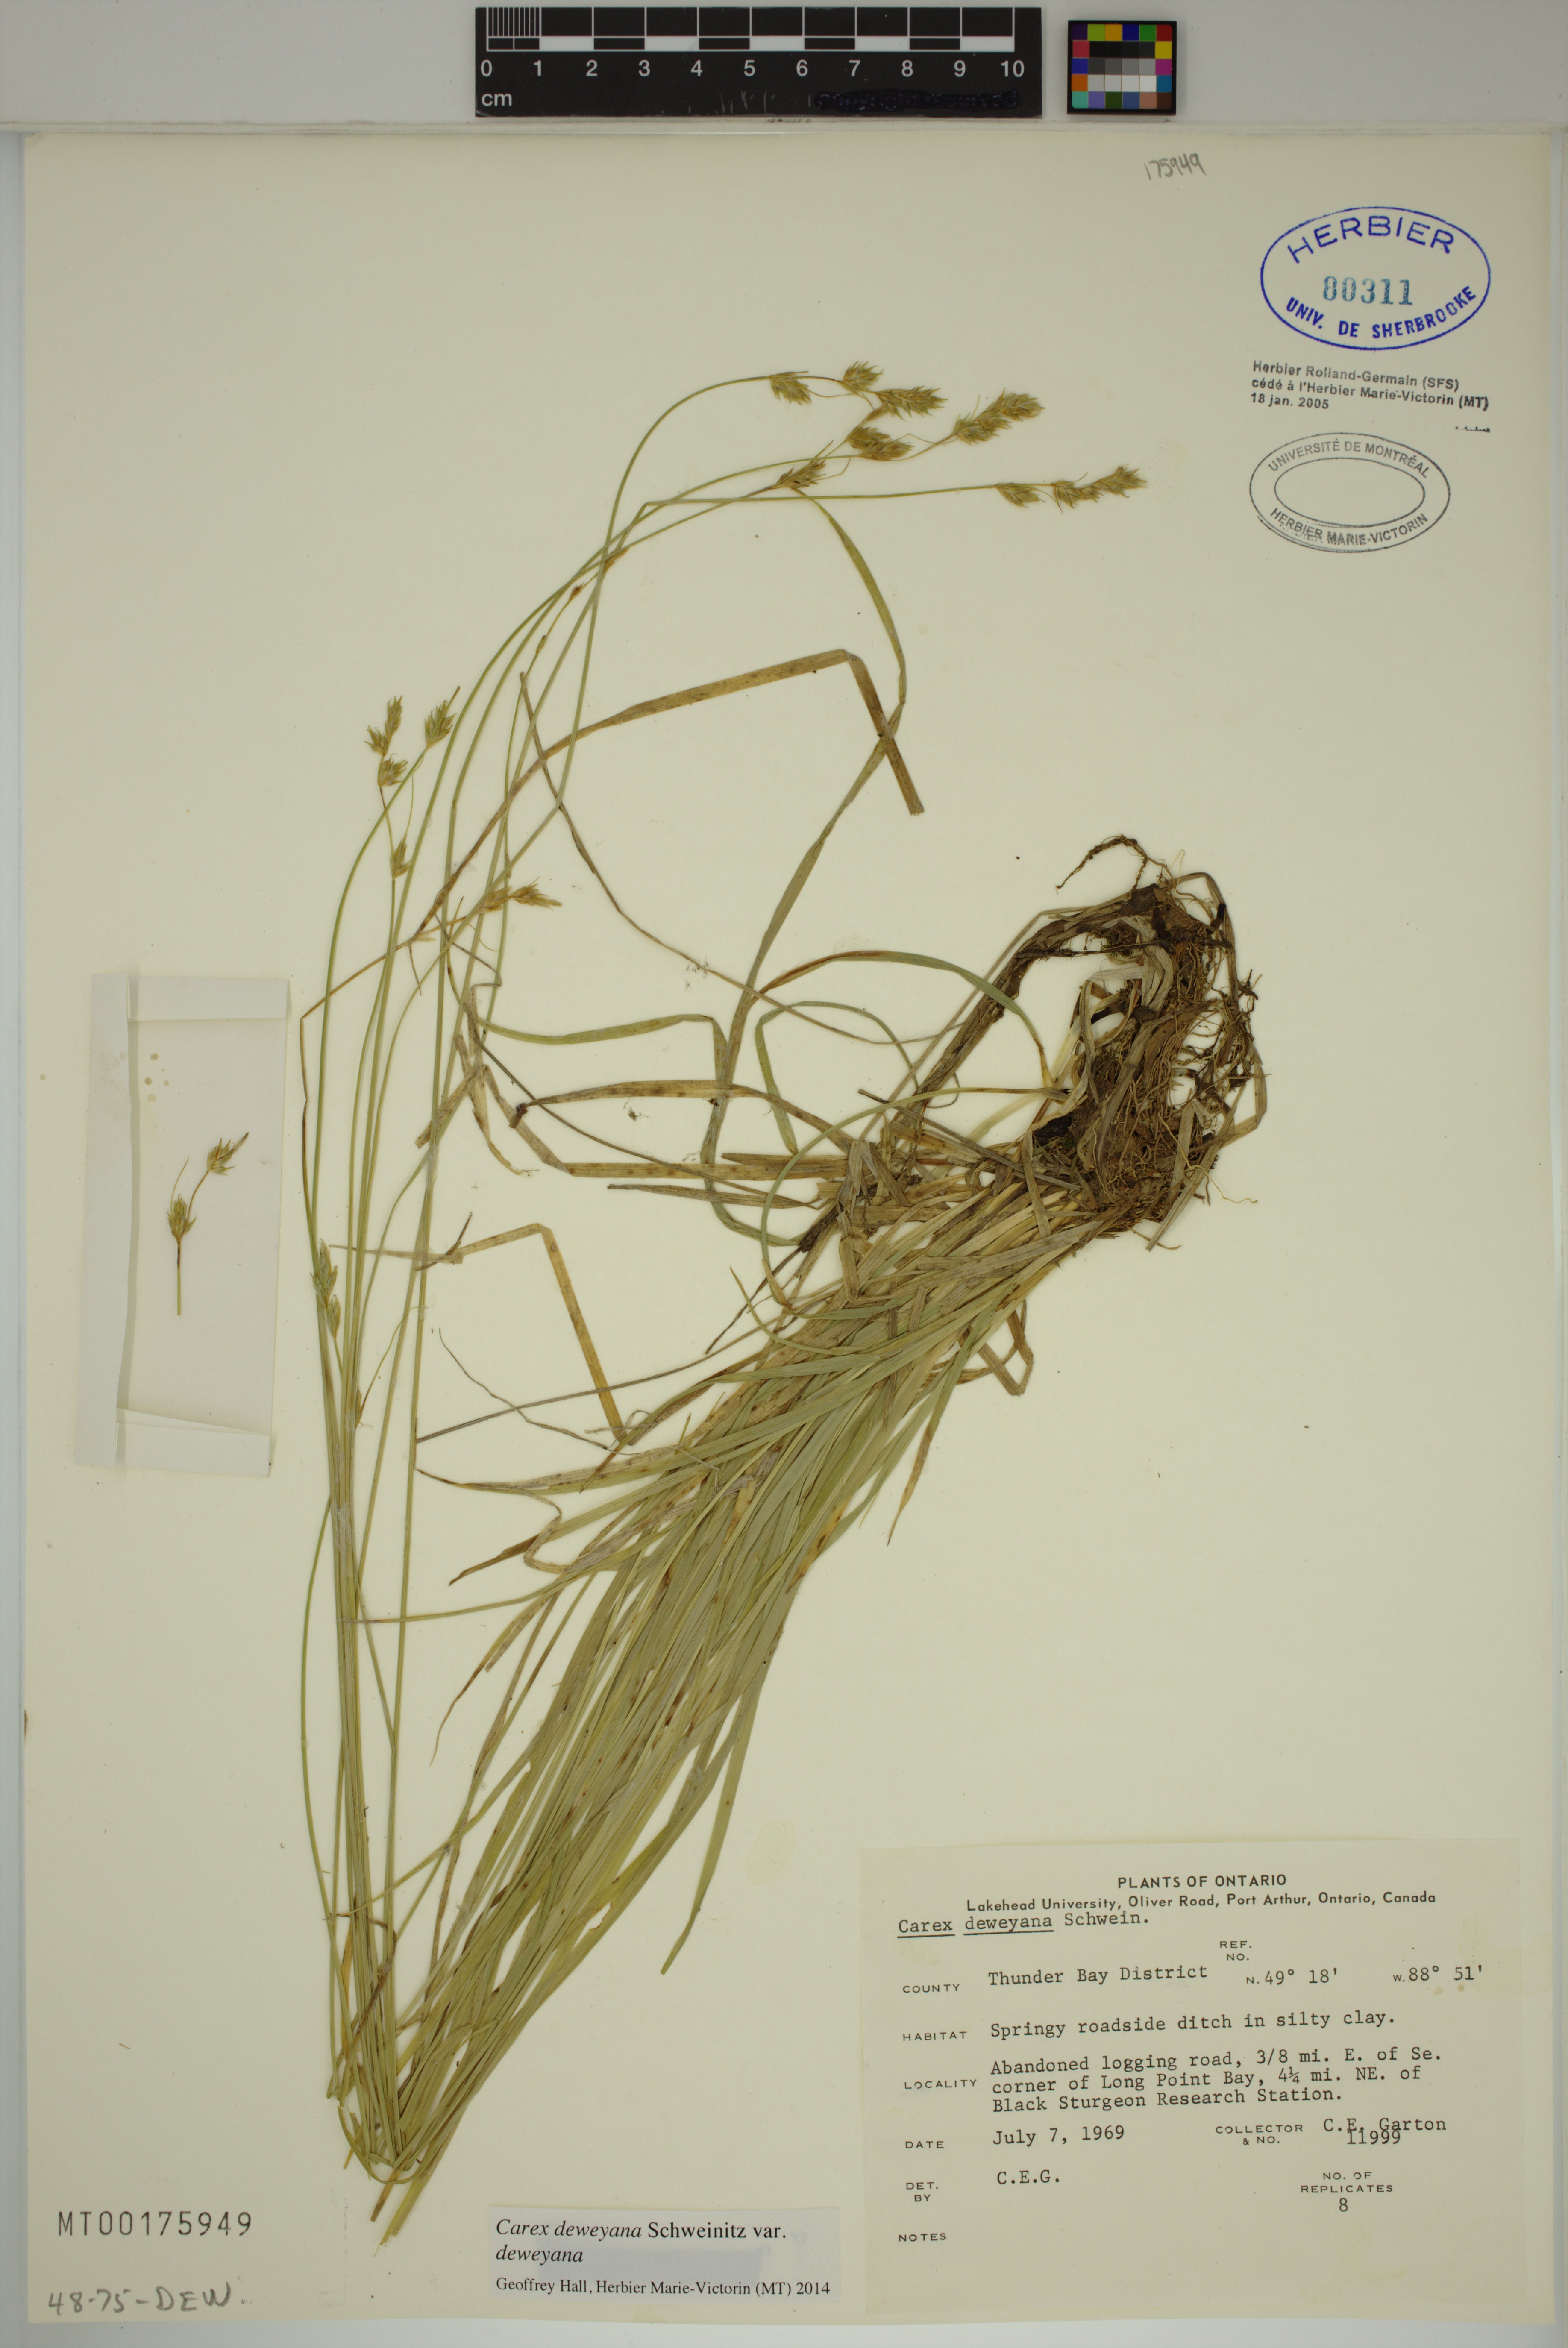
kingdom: Plantae
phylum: Tracheophyta
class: Liliopsida
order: Poales
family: Cyperaceae
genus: Carex
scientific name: Carex deweyana
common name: Dewey's sedge
